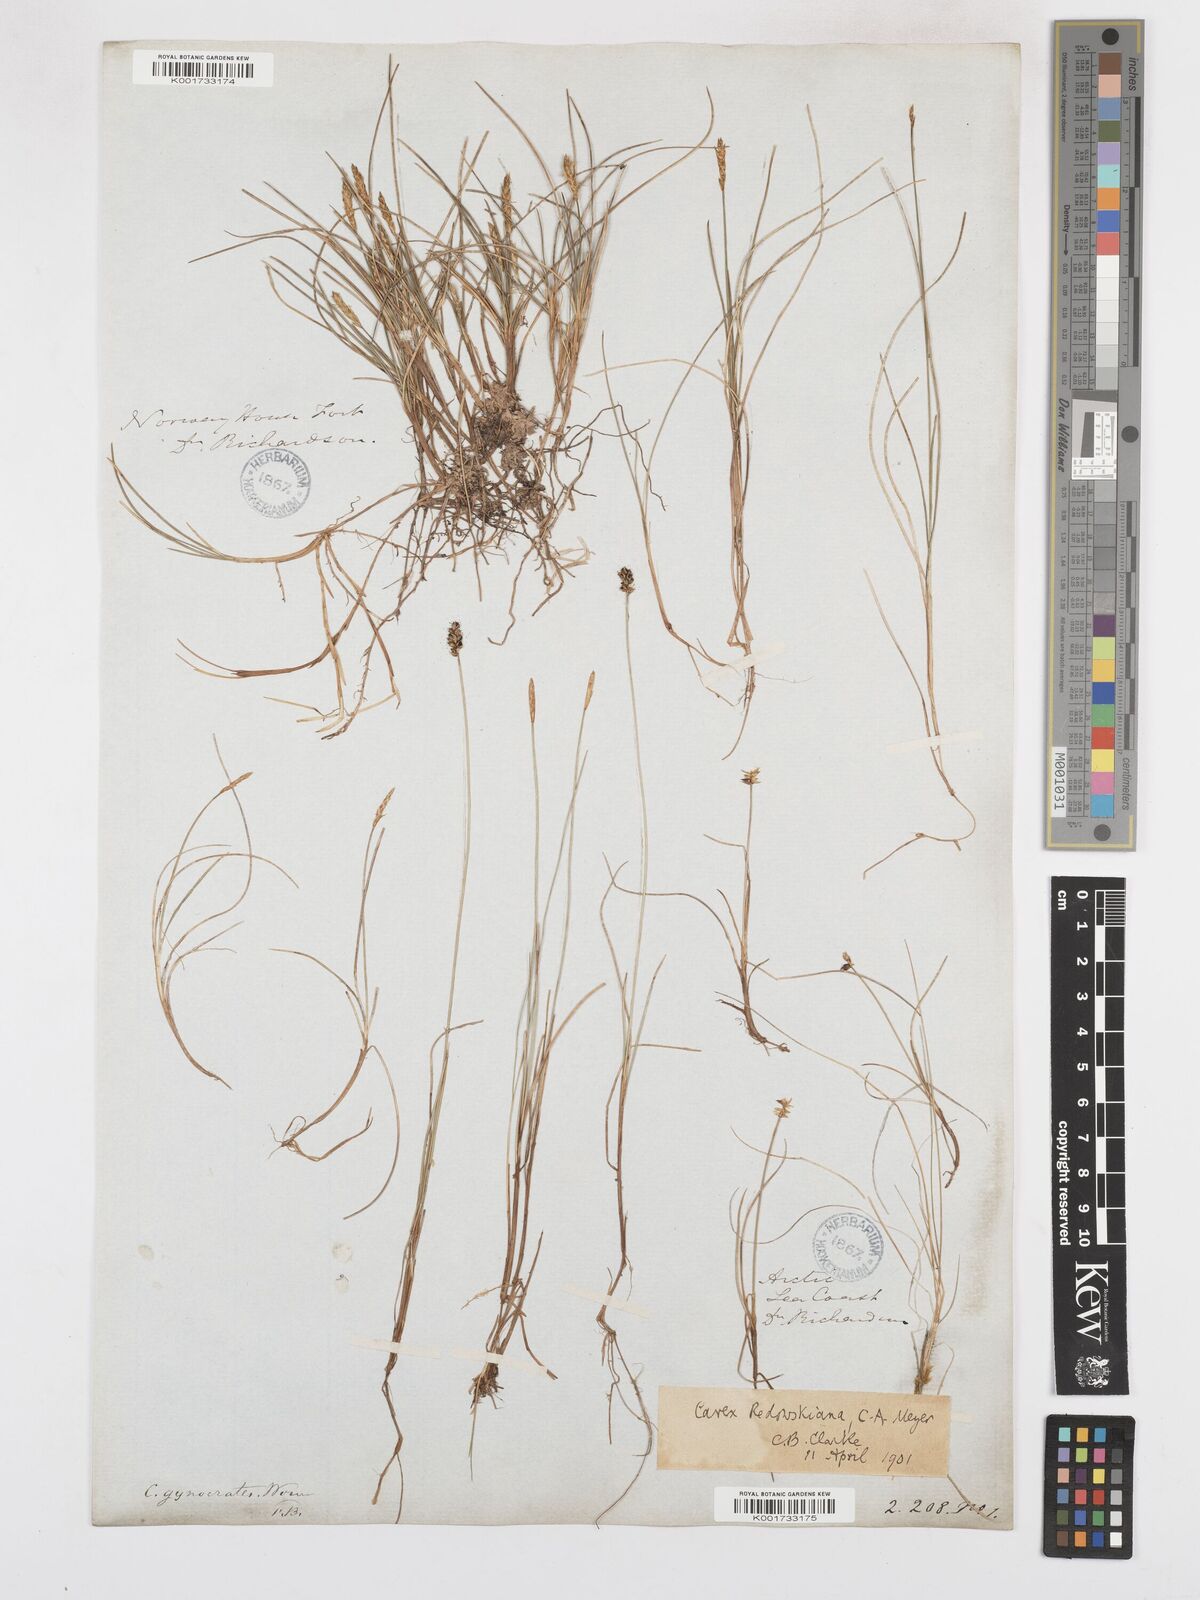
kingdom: Plantae
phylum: Tracheophyta
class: Liliopsida
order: Poales
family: Cyperaceae
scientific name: Cyperaceae
